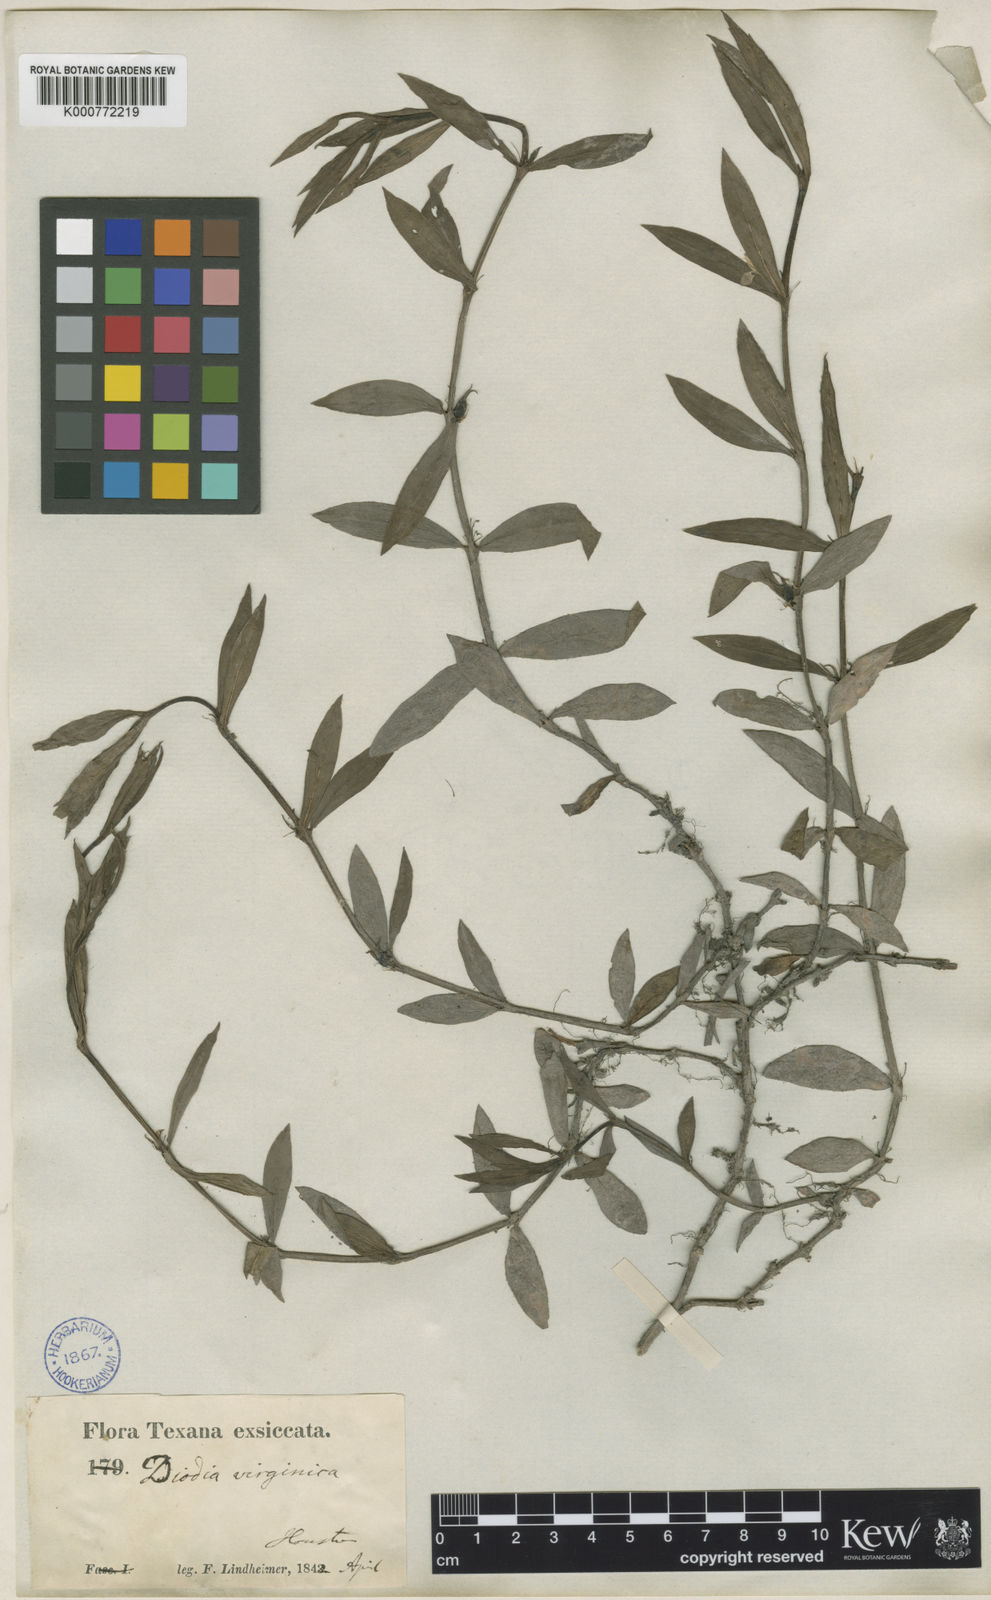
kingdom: Plantae
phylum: Tracheophyta
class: Magnoliopsida
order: Gentianales
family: Rubiaceae
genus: Diodia
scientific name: Diodia virginiana
